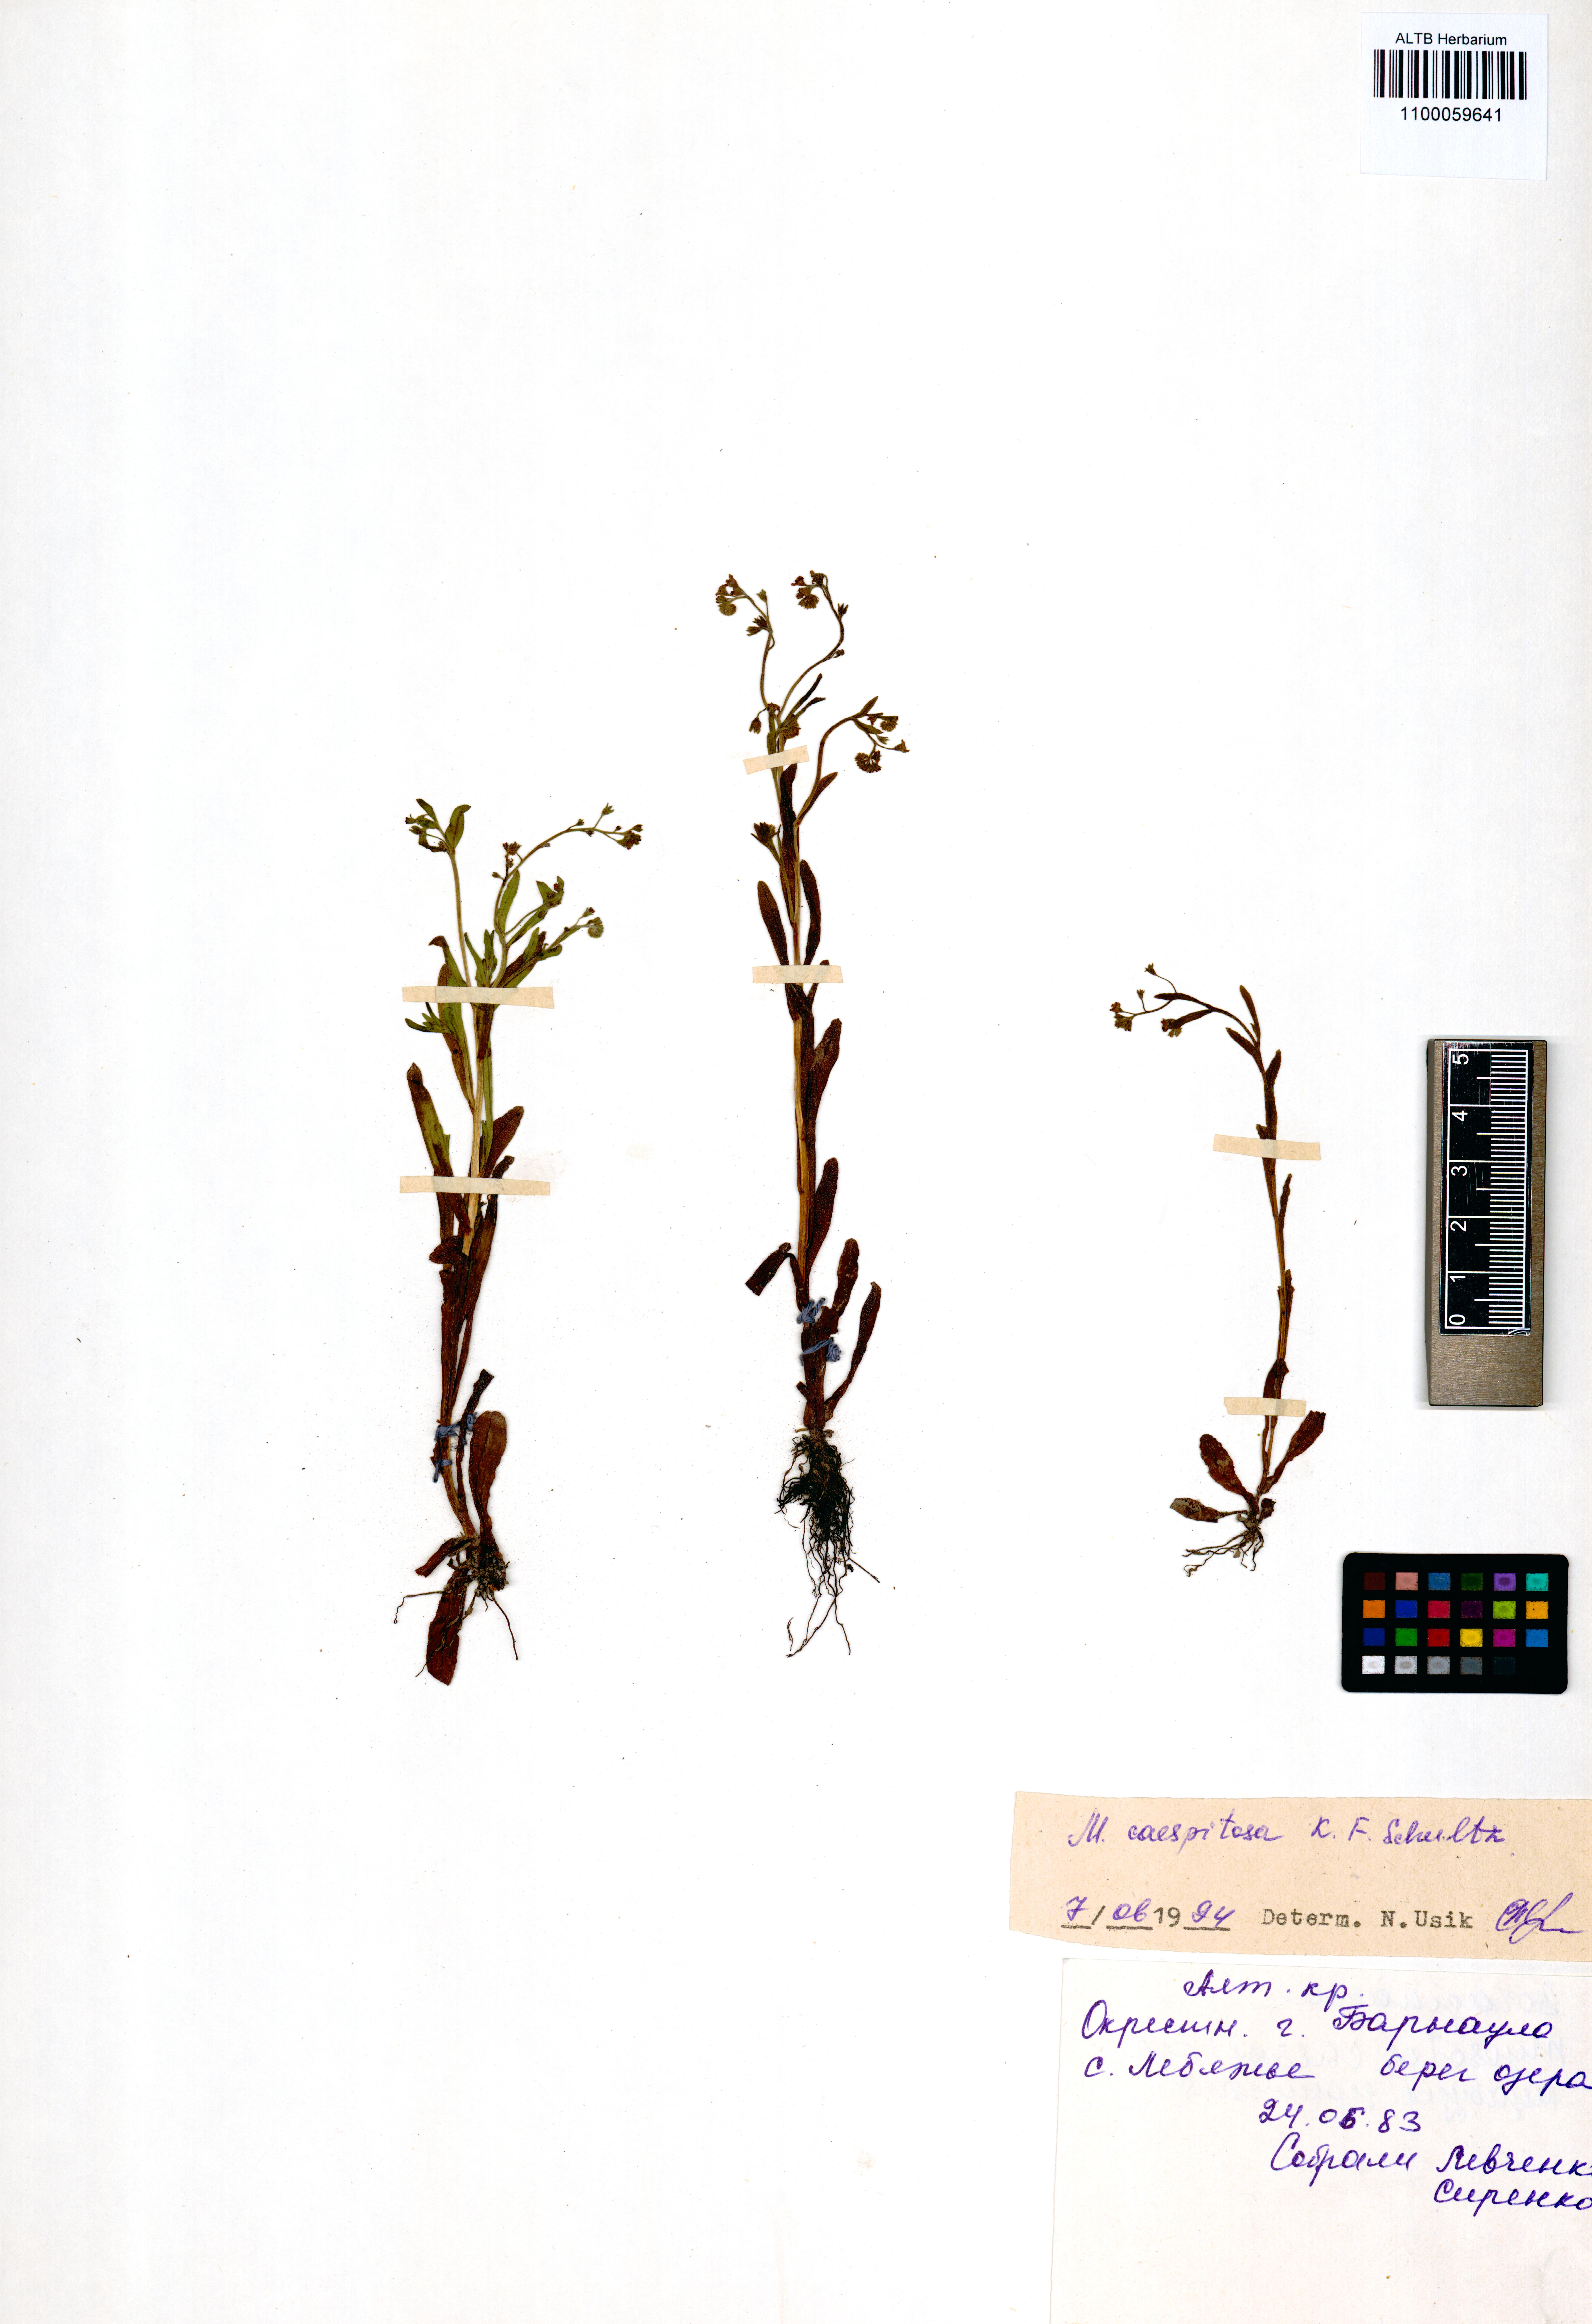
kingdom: Plantae
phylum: Tracheophyta
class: Magnoliopsida
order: Boraginales
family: Boraginaceae
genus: Myosotis
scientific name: Myosotis laxa
